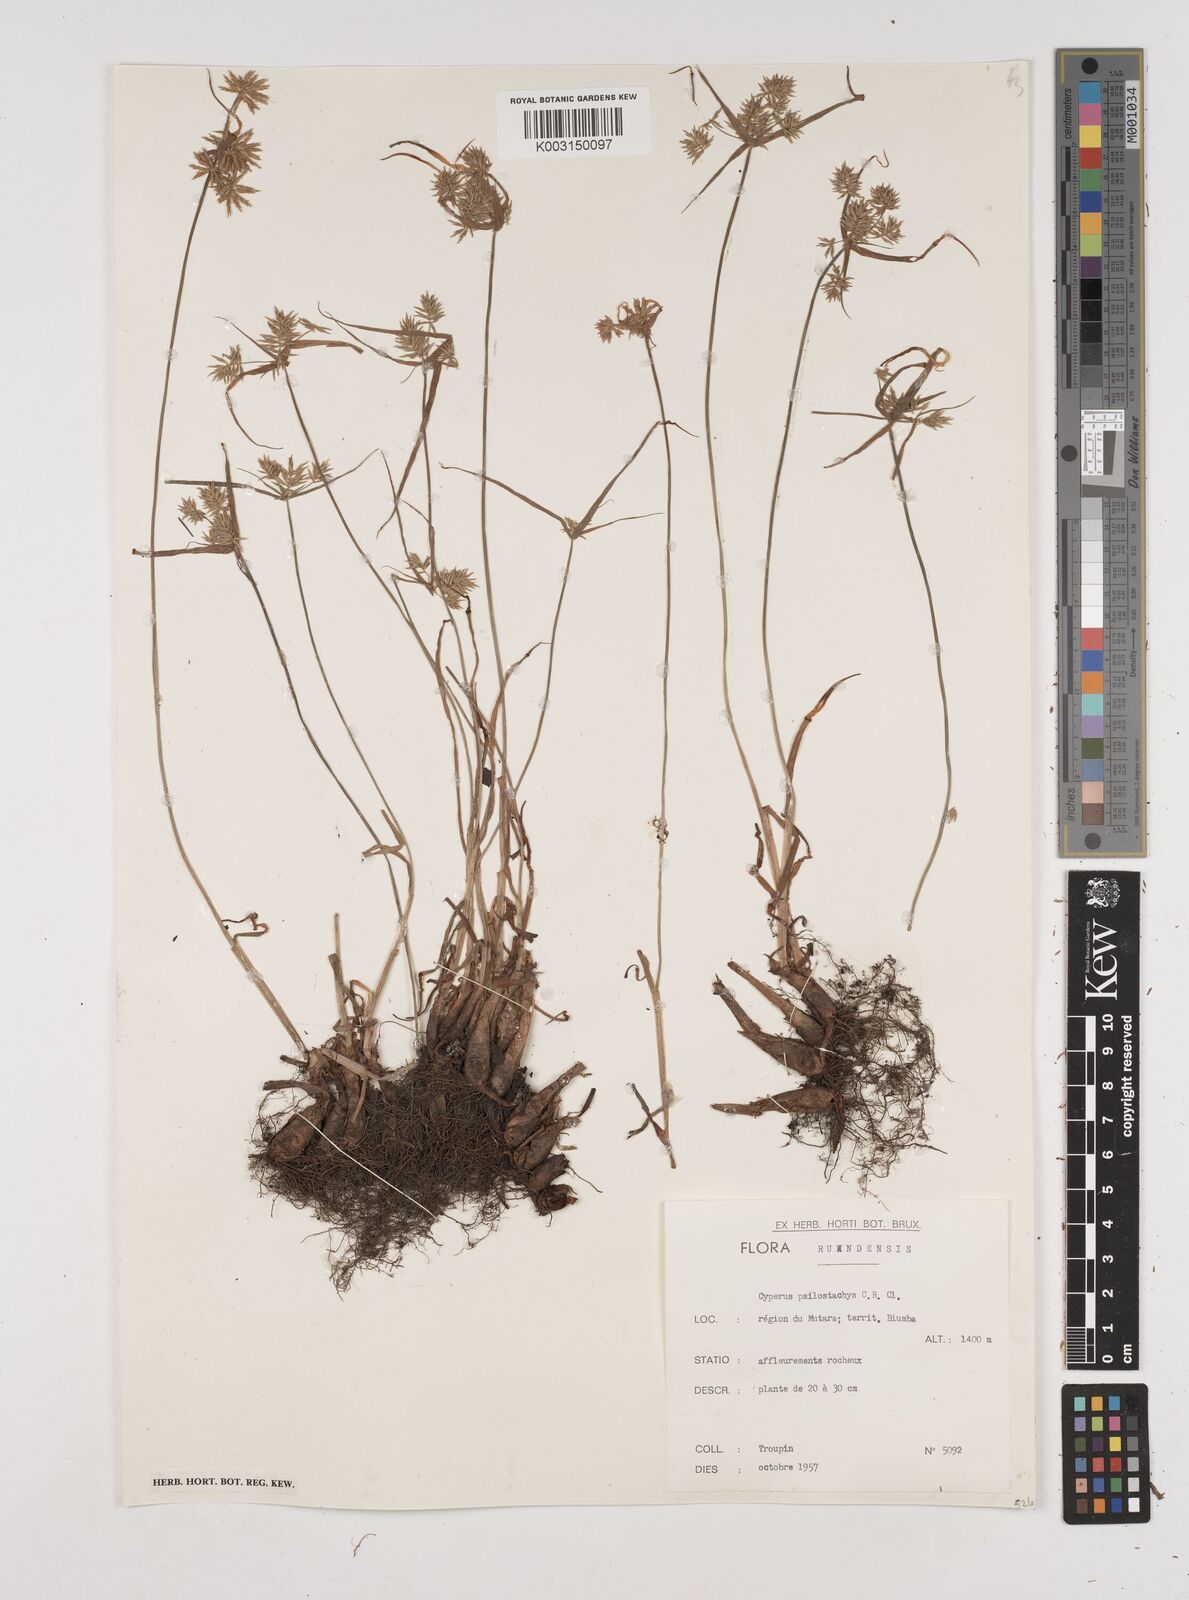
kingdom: Plantae
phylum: Tracheophyta
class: Liliopsida
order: Poales
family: Cyperaceae
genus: Cyperus
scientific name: Cyperus trigonellus
